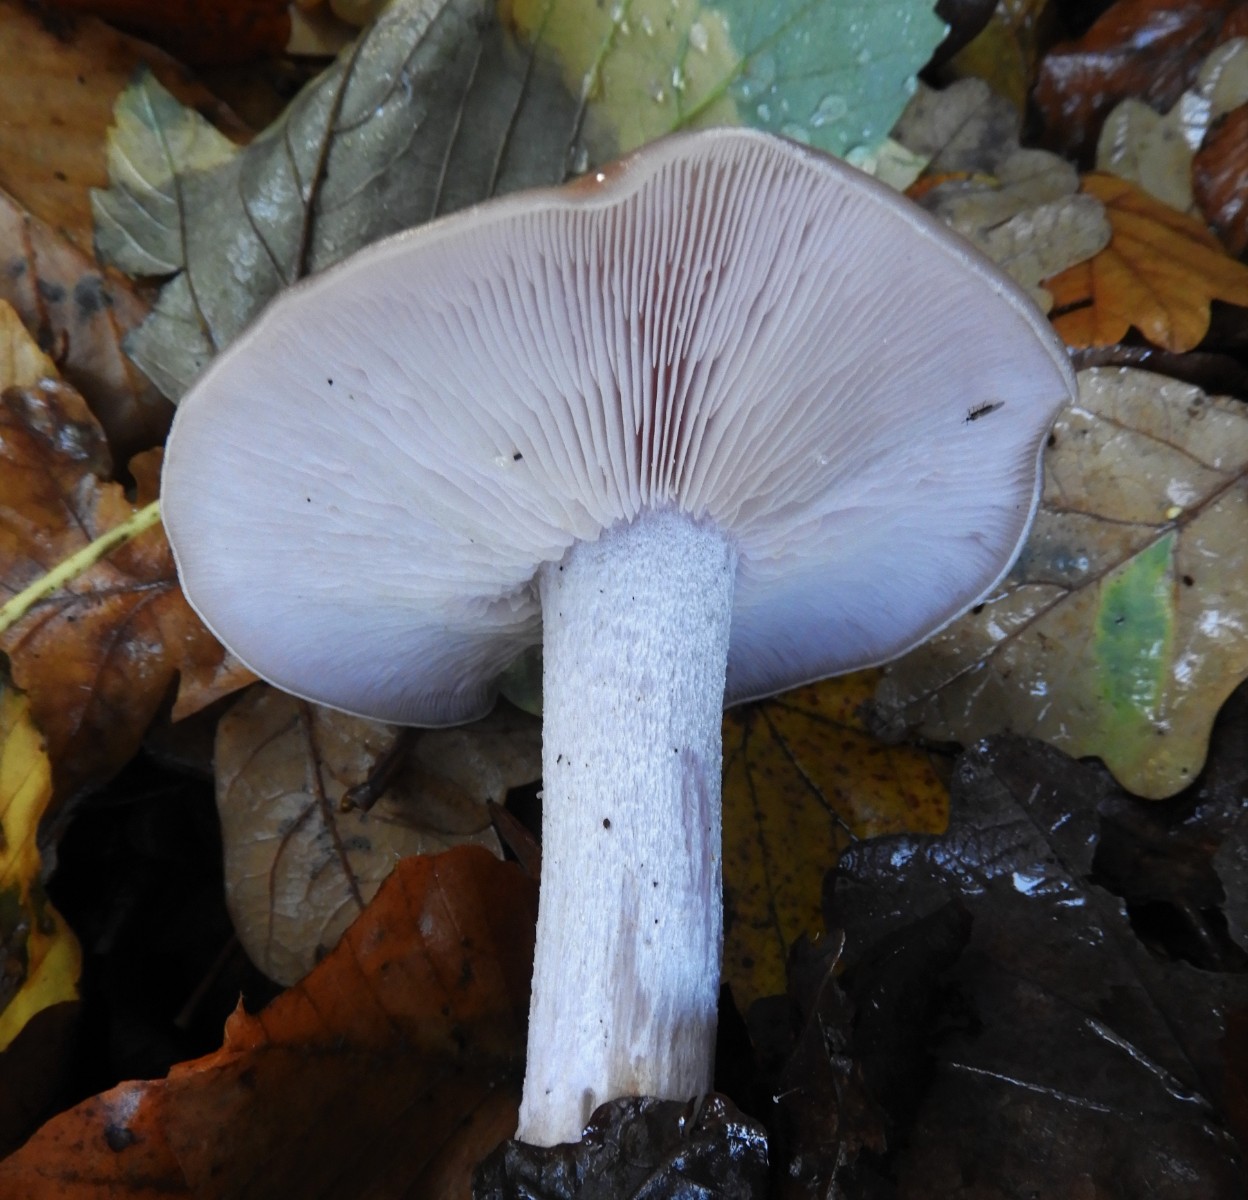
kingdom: Fungi
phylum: Basidiomycota
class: Agaricomycetes
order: Agaricales
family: Tricholomataceae
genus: Lepista
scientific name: Lepista nuda
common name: violet hekseringshat
